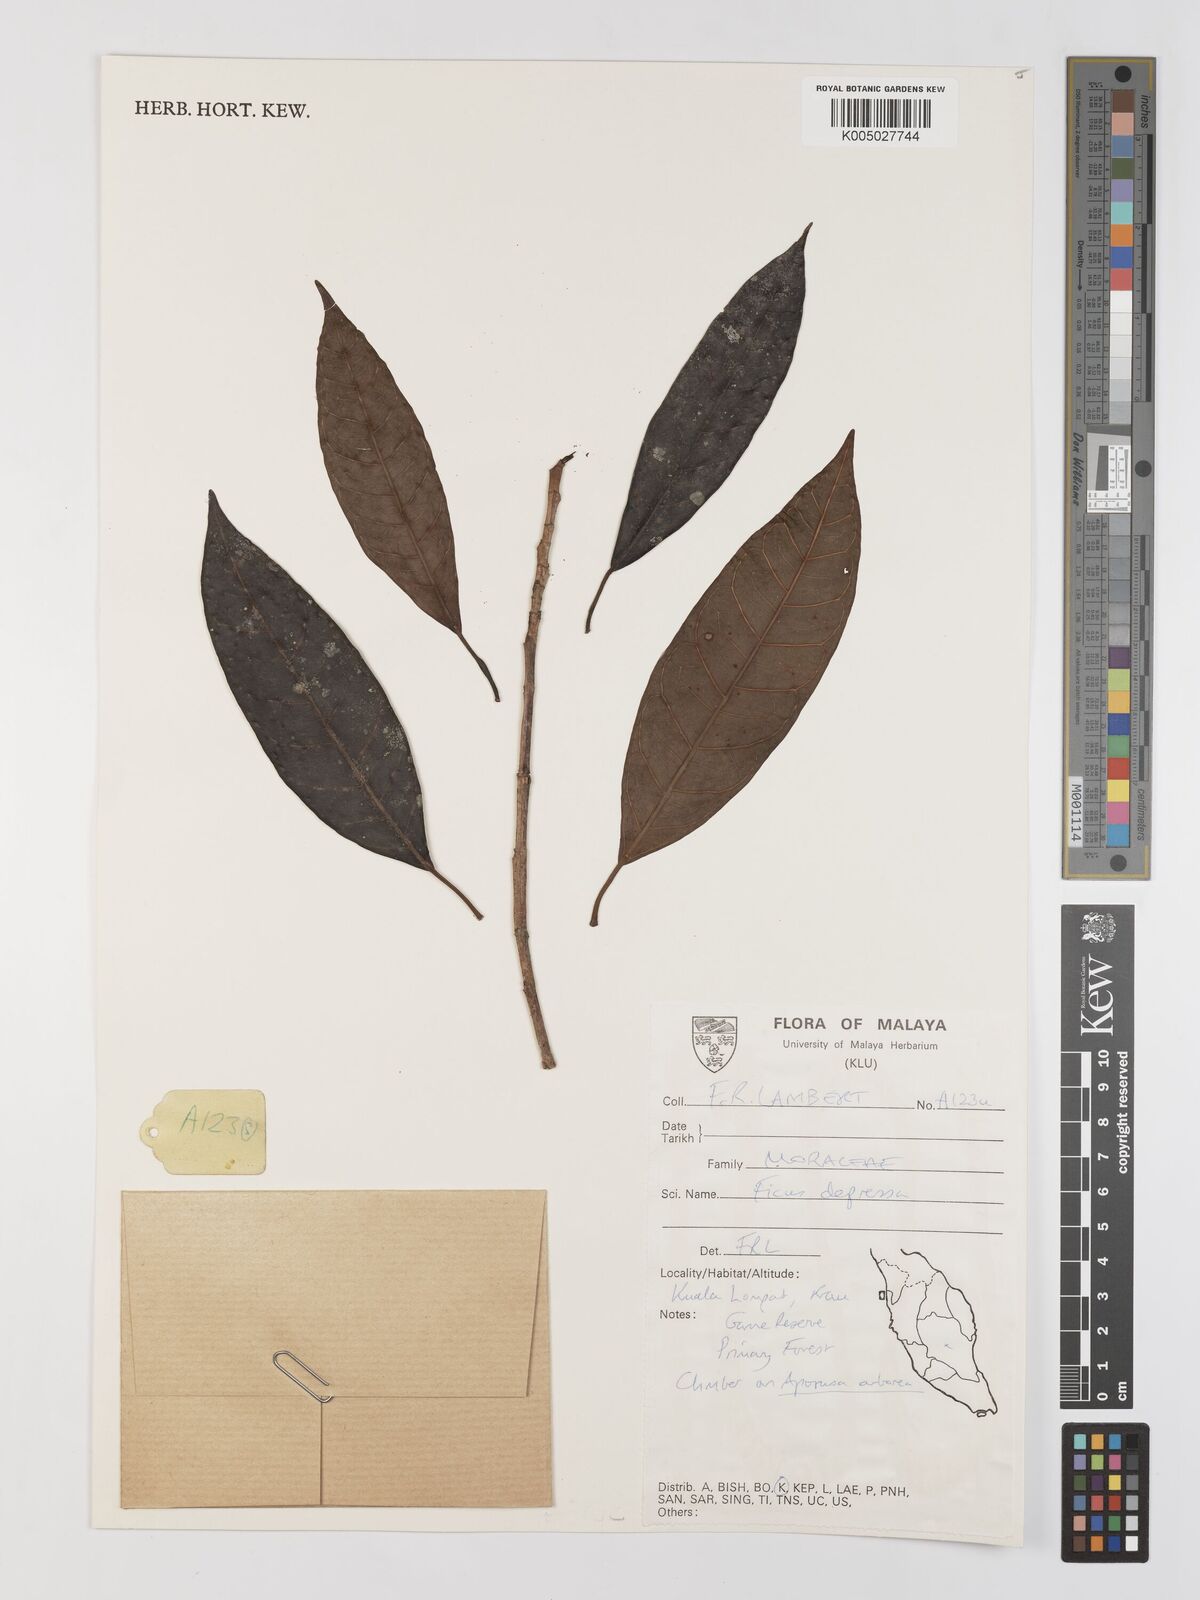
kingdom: Plantae
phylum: Tracheophyta
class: Magnoliopsida
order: Rosales
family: Moraceae
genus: Ficus
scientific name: Ficus
